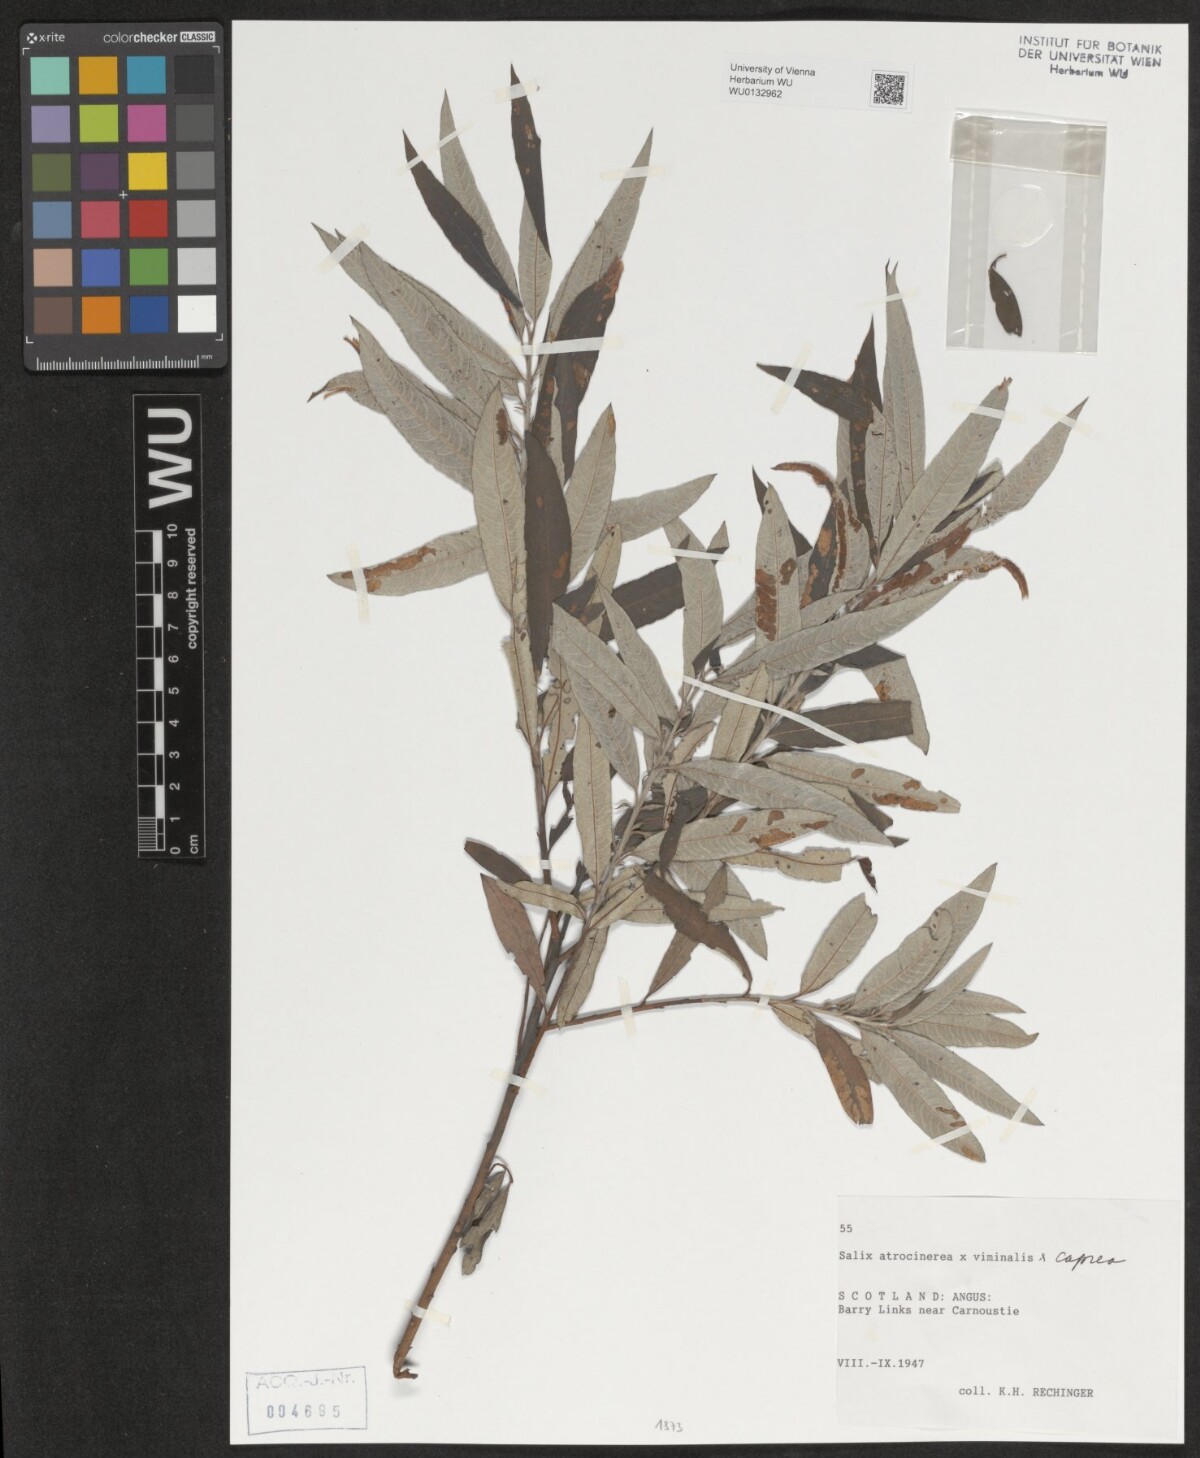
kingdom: Plantae
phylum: Tracheophyta
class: Magnoliopsida
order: Malpighiales
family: Salicaceae
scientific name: Salicaceae
